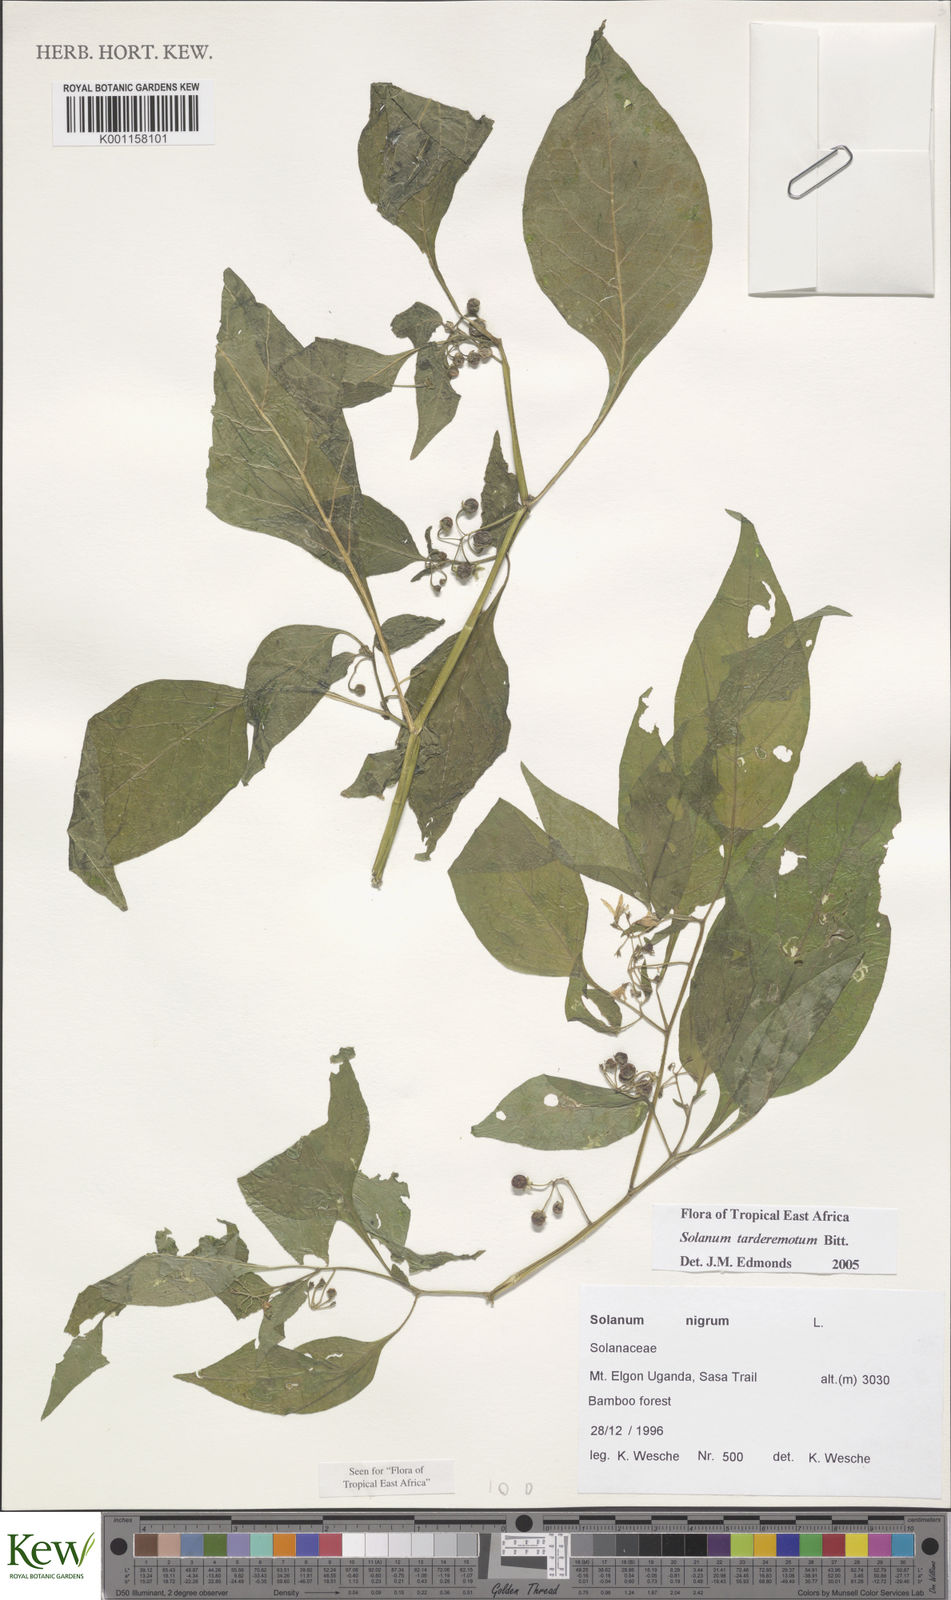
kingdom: Plantae
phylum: Tracheophyta
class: Magnoliopsida
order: Solanales
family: Solanaceae
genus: Solanum
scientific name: Solanum tarderemotum
